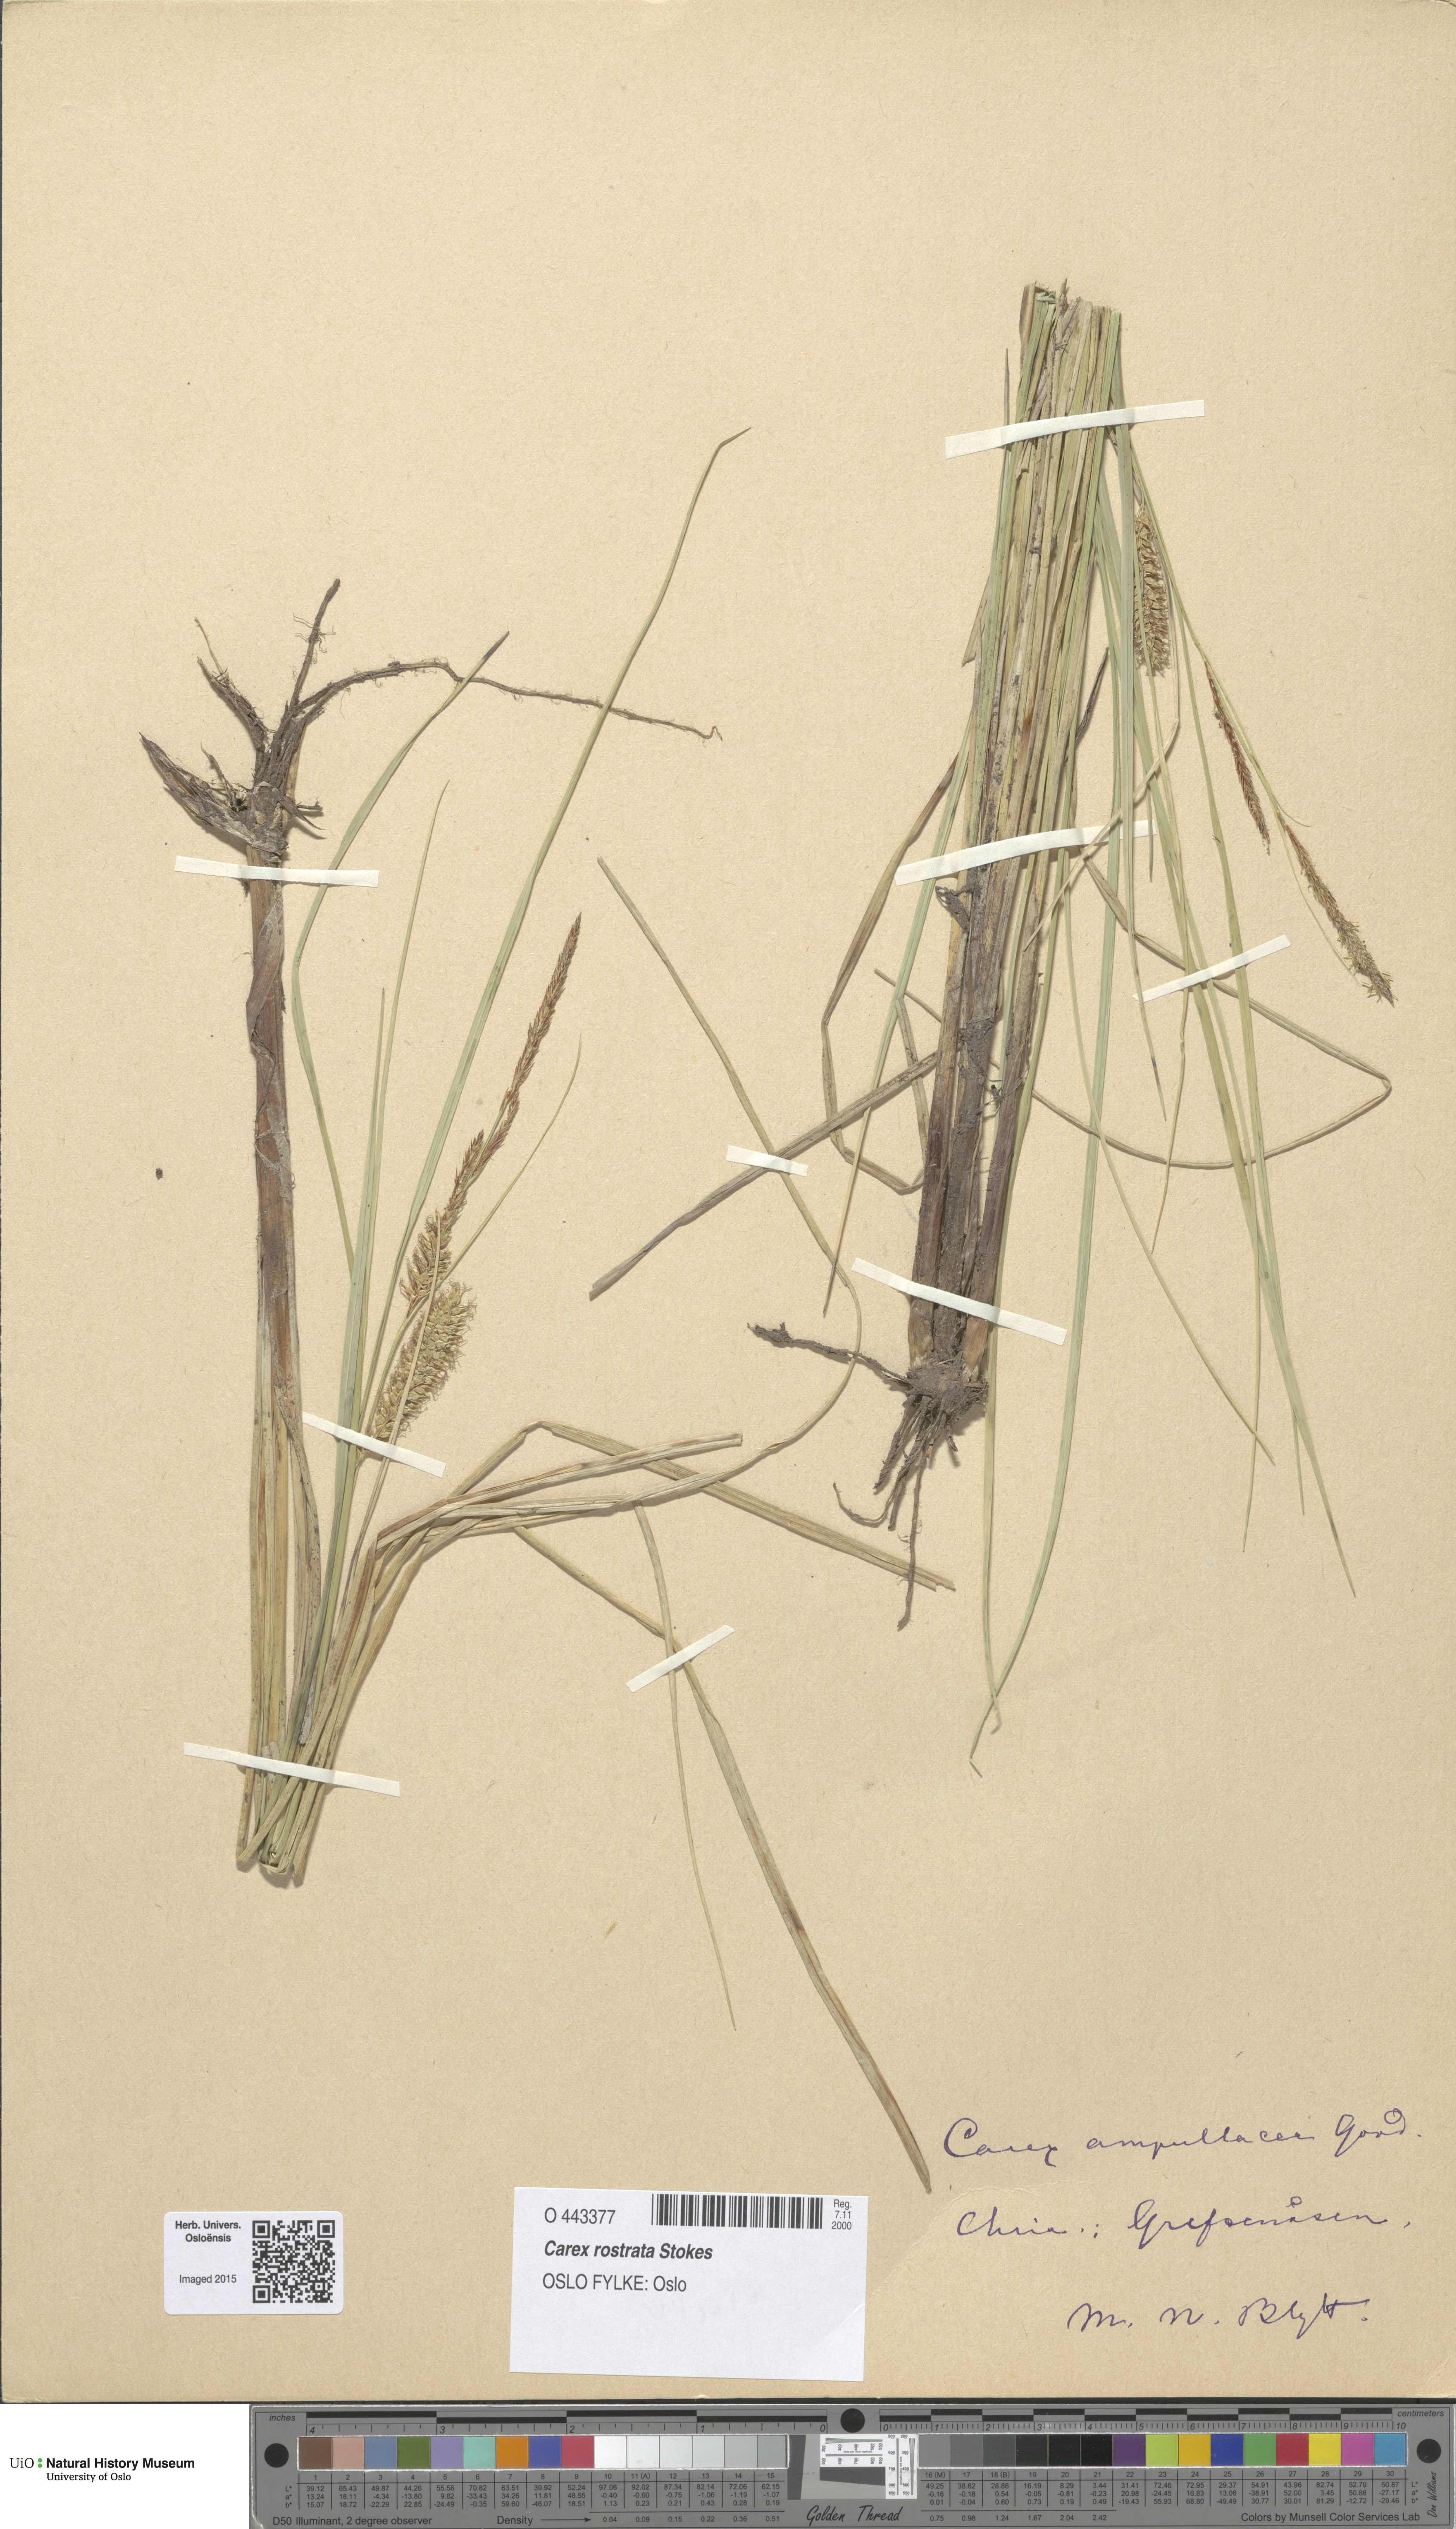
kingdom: Plantae
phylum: Tracheophyta
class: Liliopsida
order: Poales
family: Cyperaceae
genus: Carex
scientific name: Carex rostrata
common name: Bottle sedge
